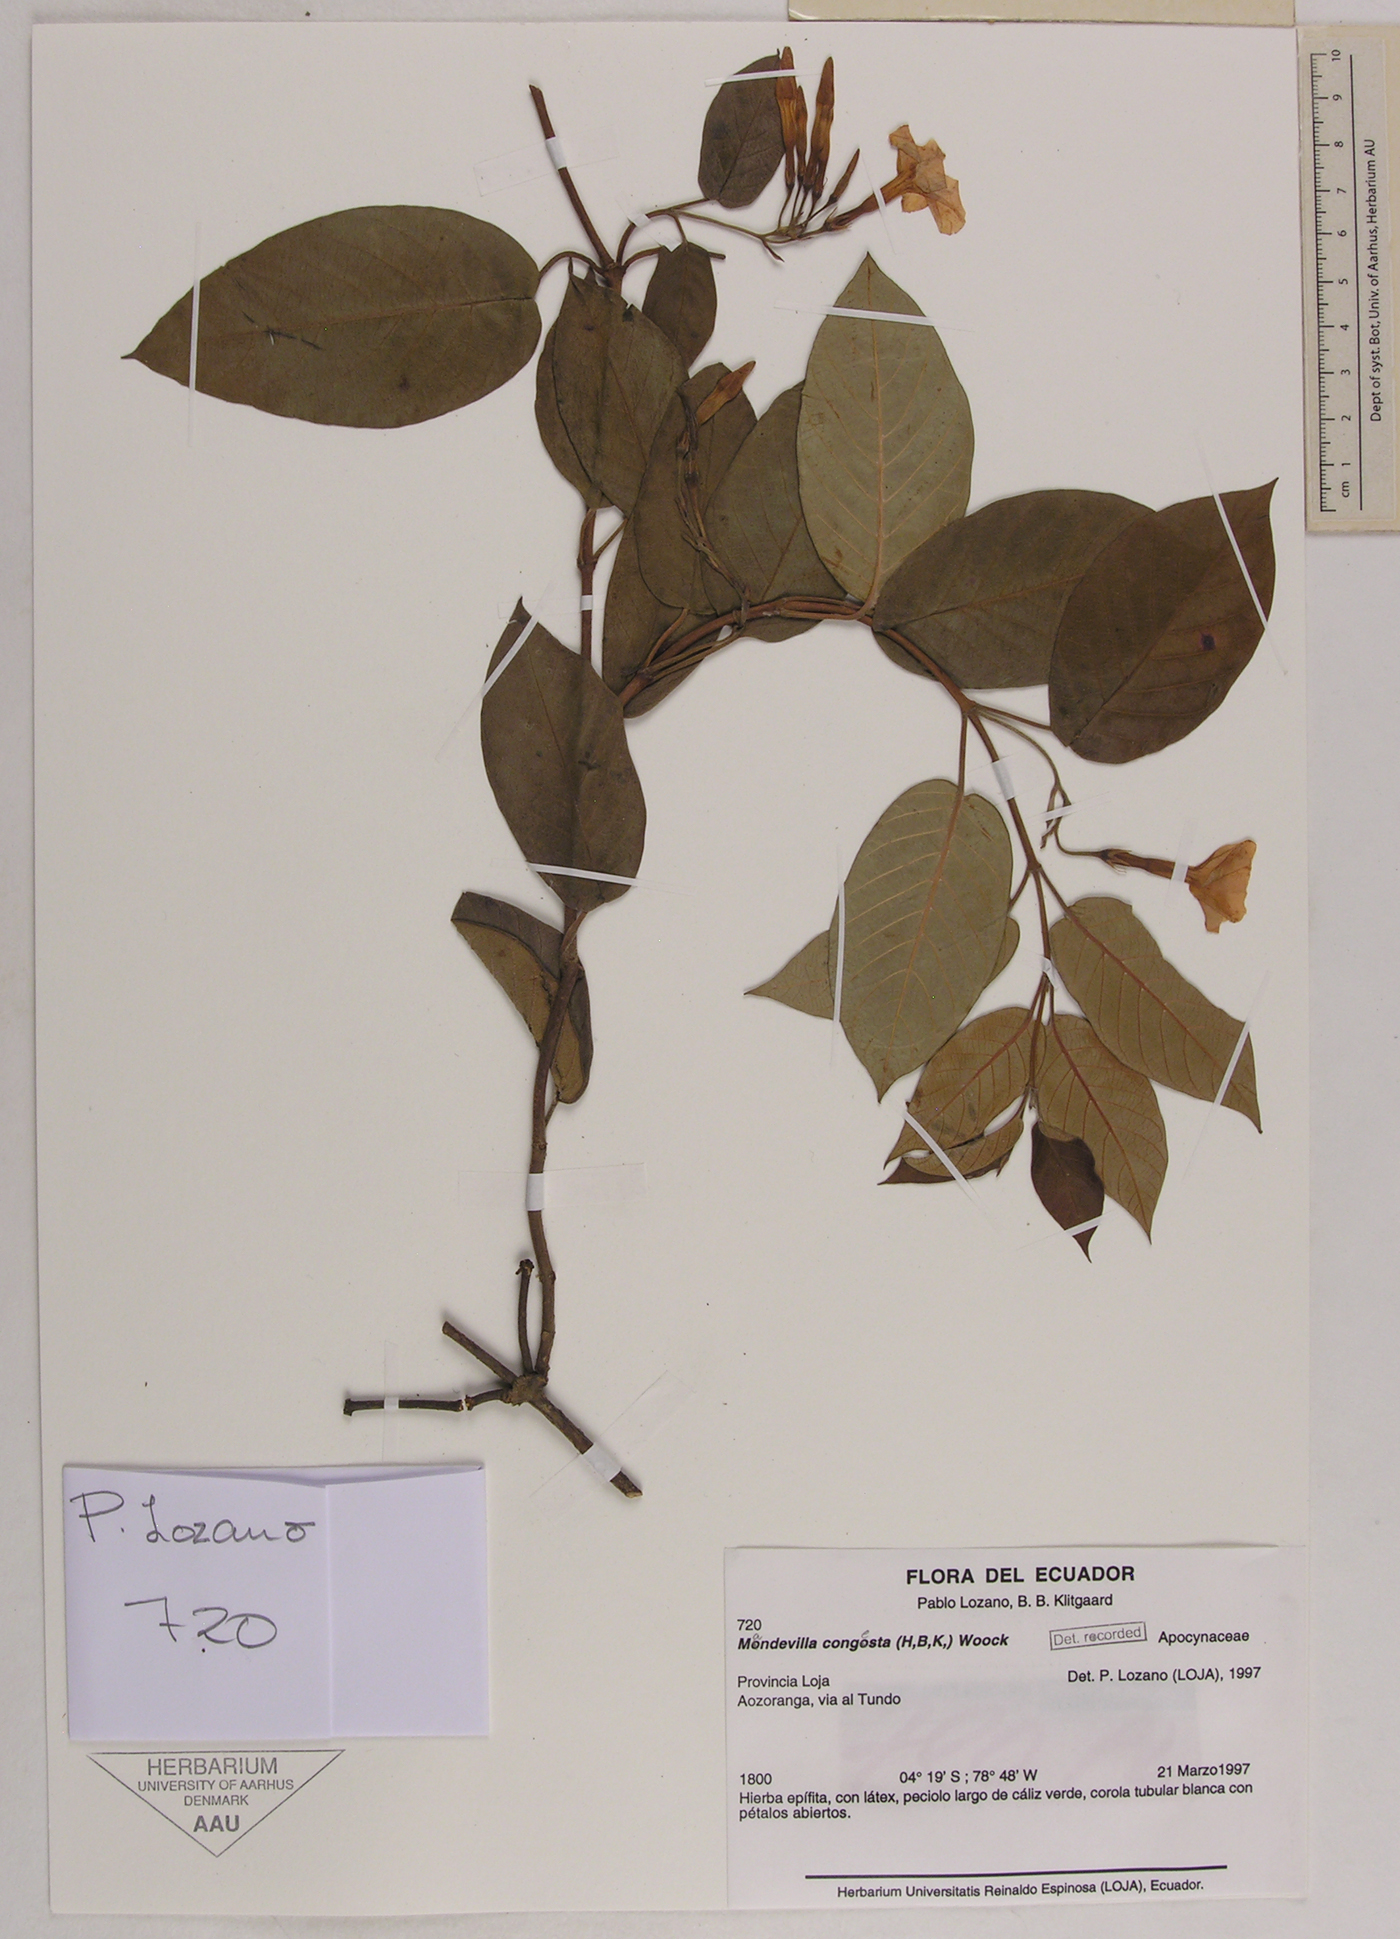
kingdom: Plantae
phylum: Tracheophyta
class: Magnoliopsida
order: Gentianales
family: Apocynaceae
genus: Mandevilla
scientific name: Mandevilla pubescens
